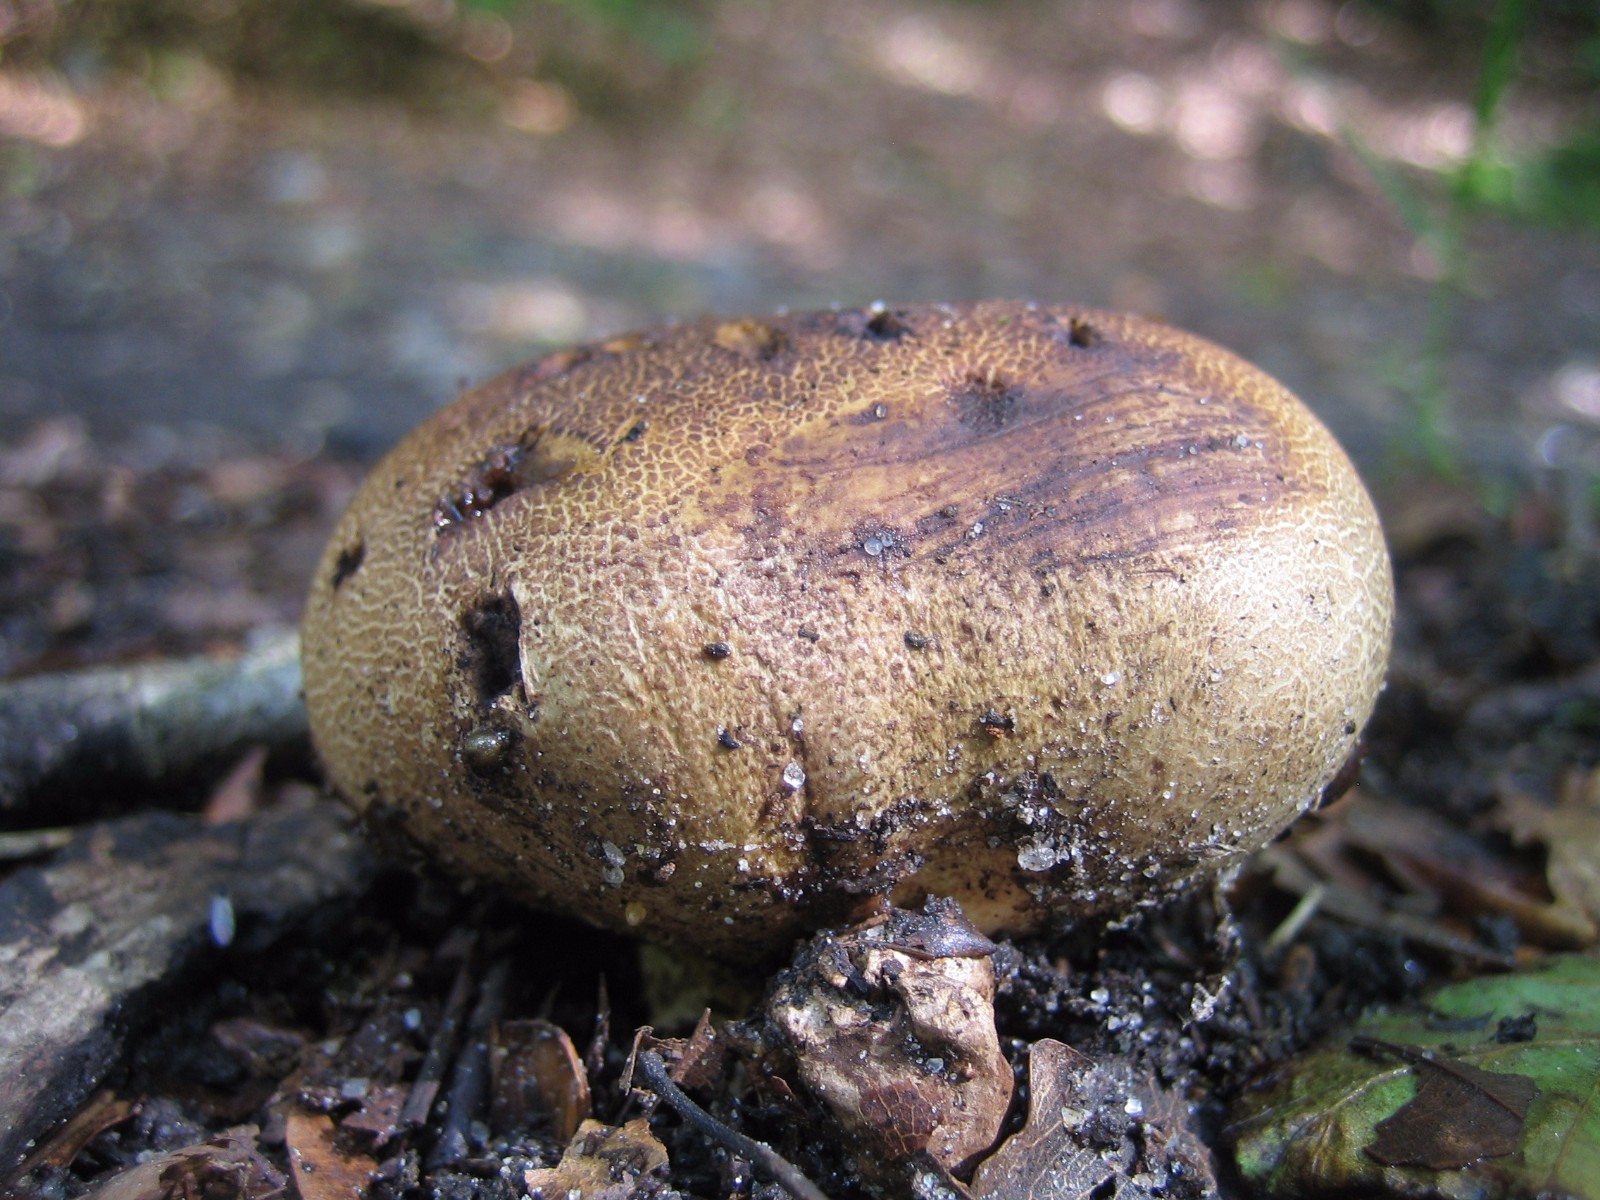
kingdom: Fungi
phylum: Basidiomycota
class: Agaricomycetes
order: Boletales
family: Sclerodermataceae
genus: Scleroderma
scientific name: Scleroderma
